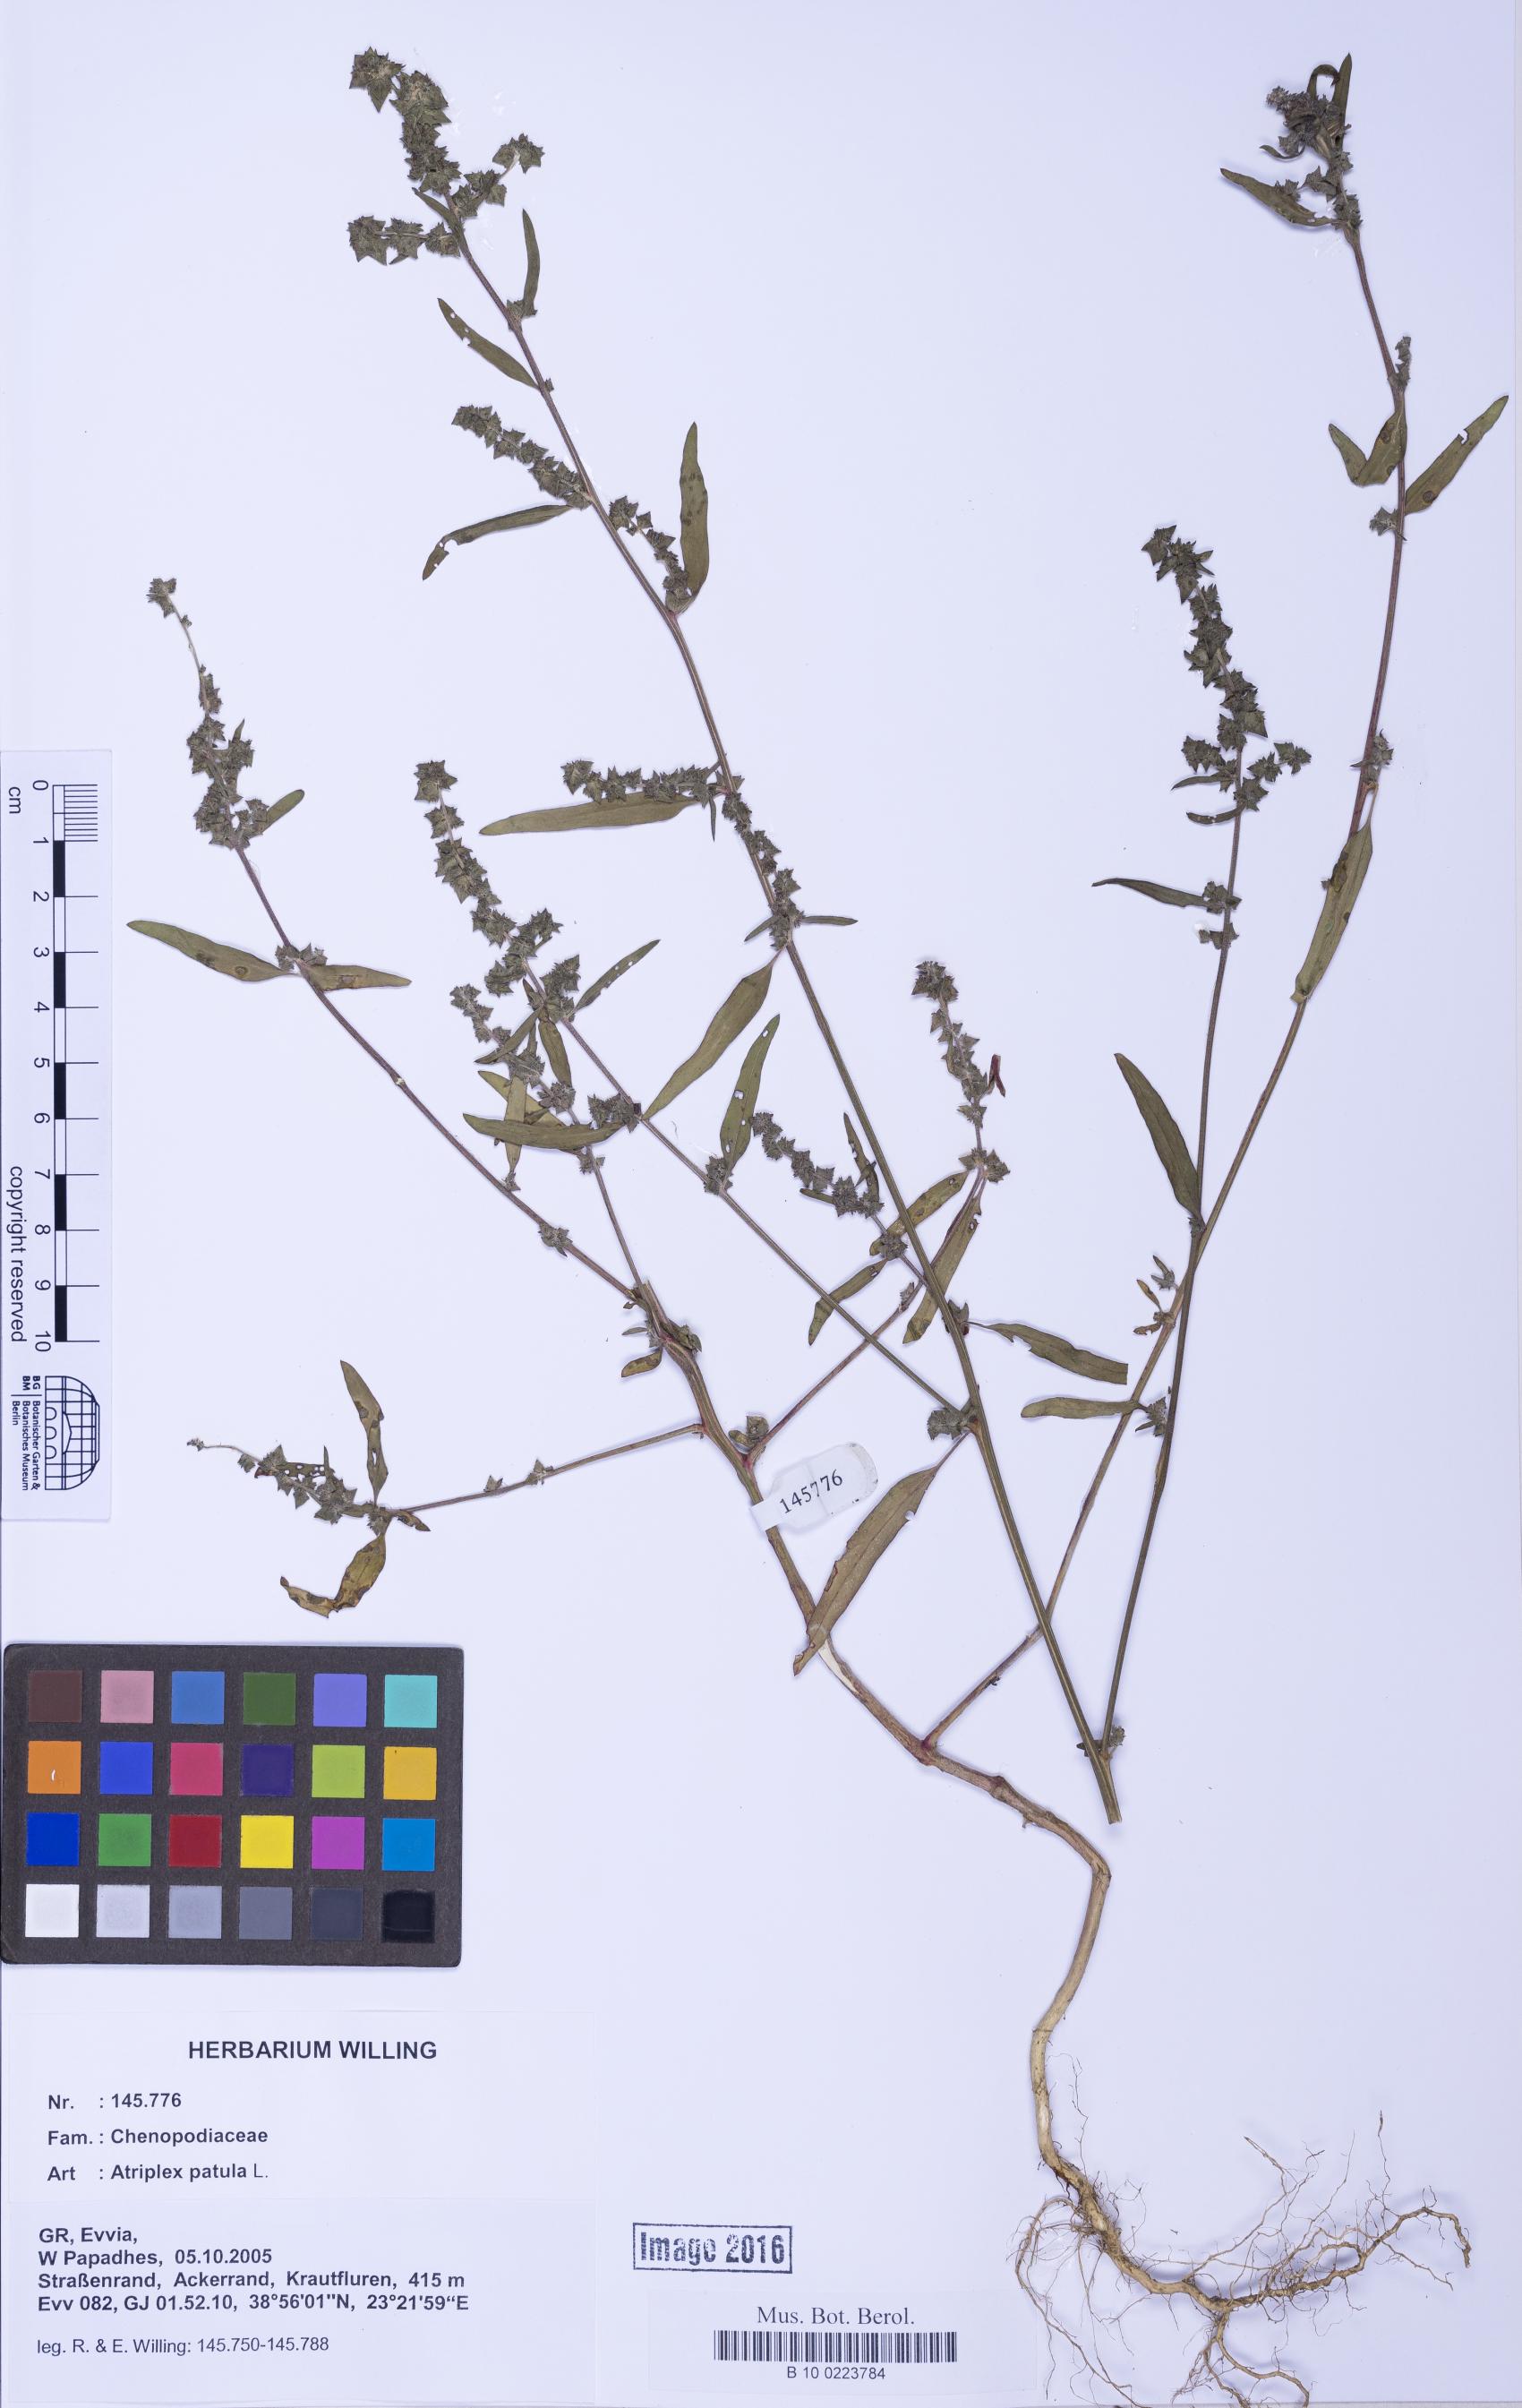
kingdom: Plantae
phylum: Tracheophyta
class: Magnoliopsida
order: Caryophyllales
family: Amaranthaceae
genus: Atriplex
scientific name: Atriplex patula
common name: Common orache
